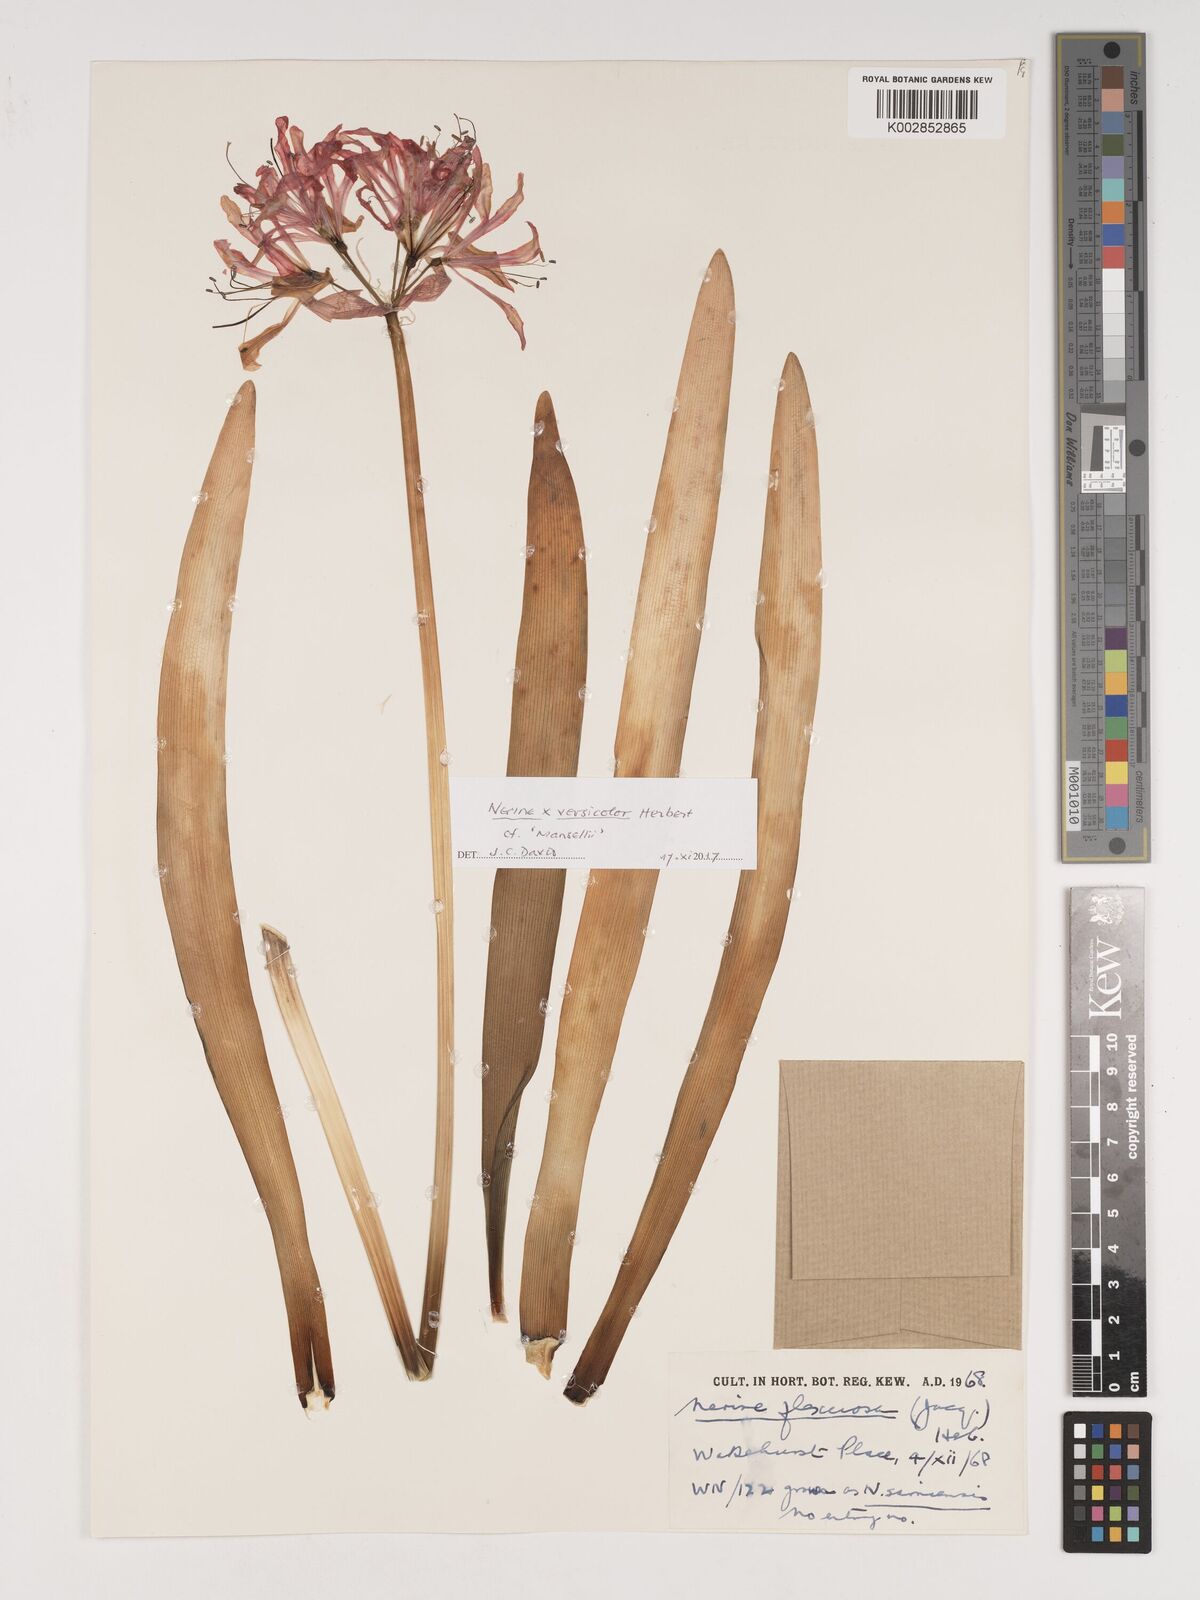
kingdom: Plantae
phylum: Tracheophyta
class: Liliopsida
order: Asparagales
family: Amaryllidaceae
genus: Nerine
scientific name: Nerine undulata
